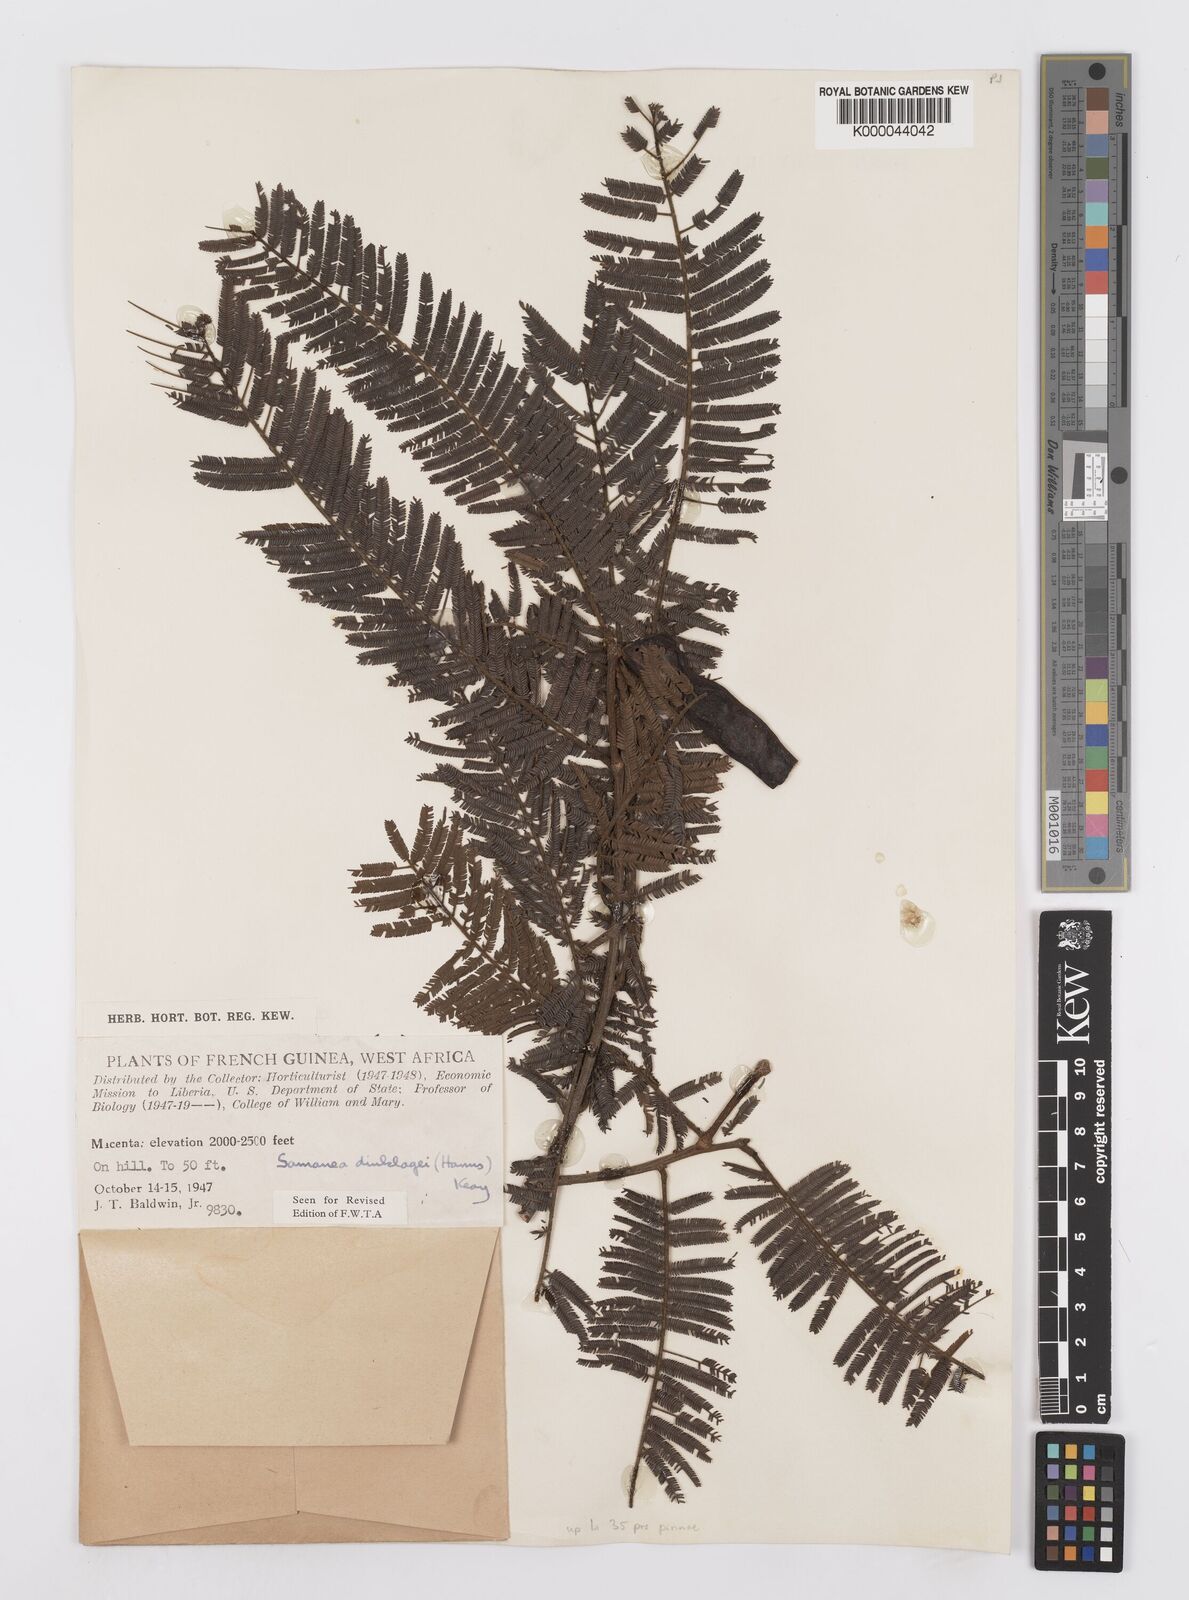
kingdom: Plantae
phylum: Tracheophyta
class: Magnoliopsida
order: Fabales
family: Fabaceae
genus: Albizia
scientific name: Albizia dinklagei
